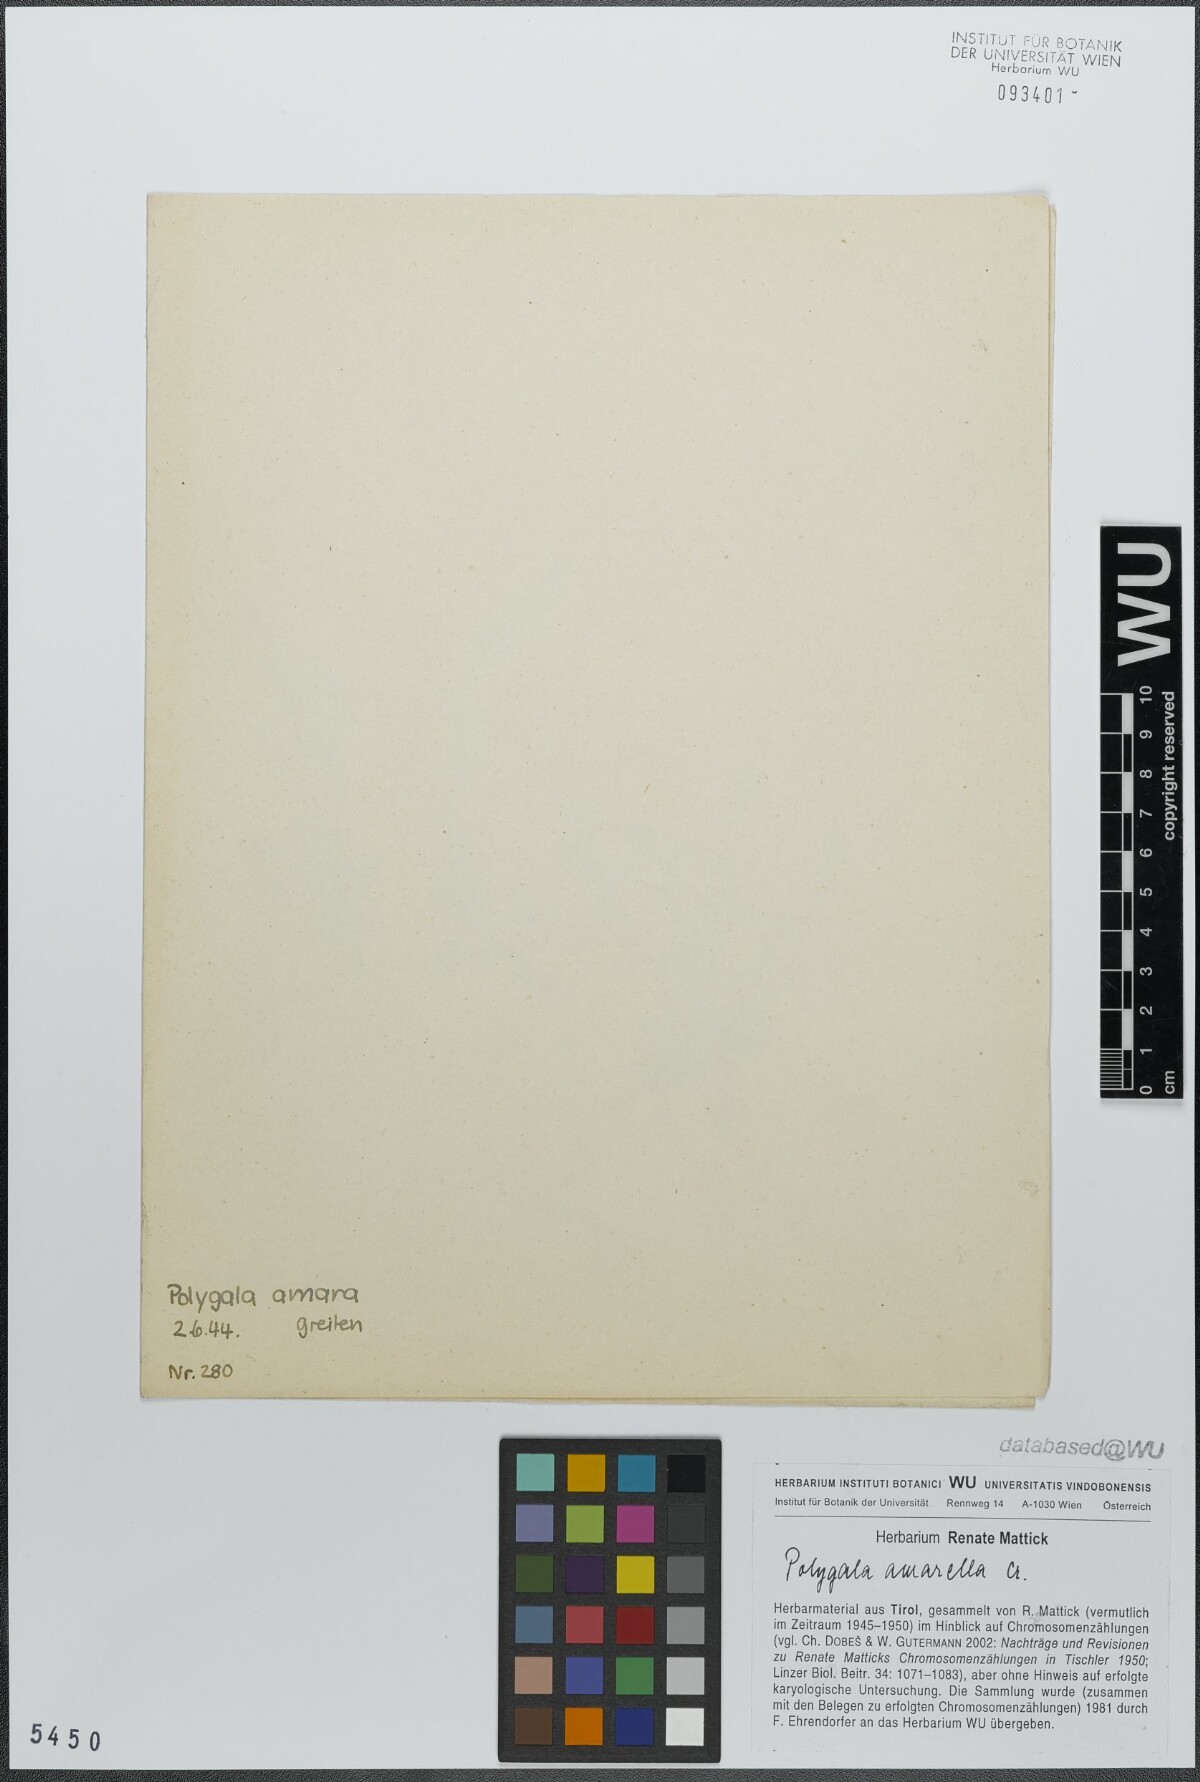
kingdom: Plantae
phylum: Tracheophyta
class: Magnoliopsida
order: Fabales
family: Polygalaceae
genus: Polygala
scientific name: Polygala amarella
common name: Dwarf milkwort
